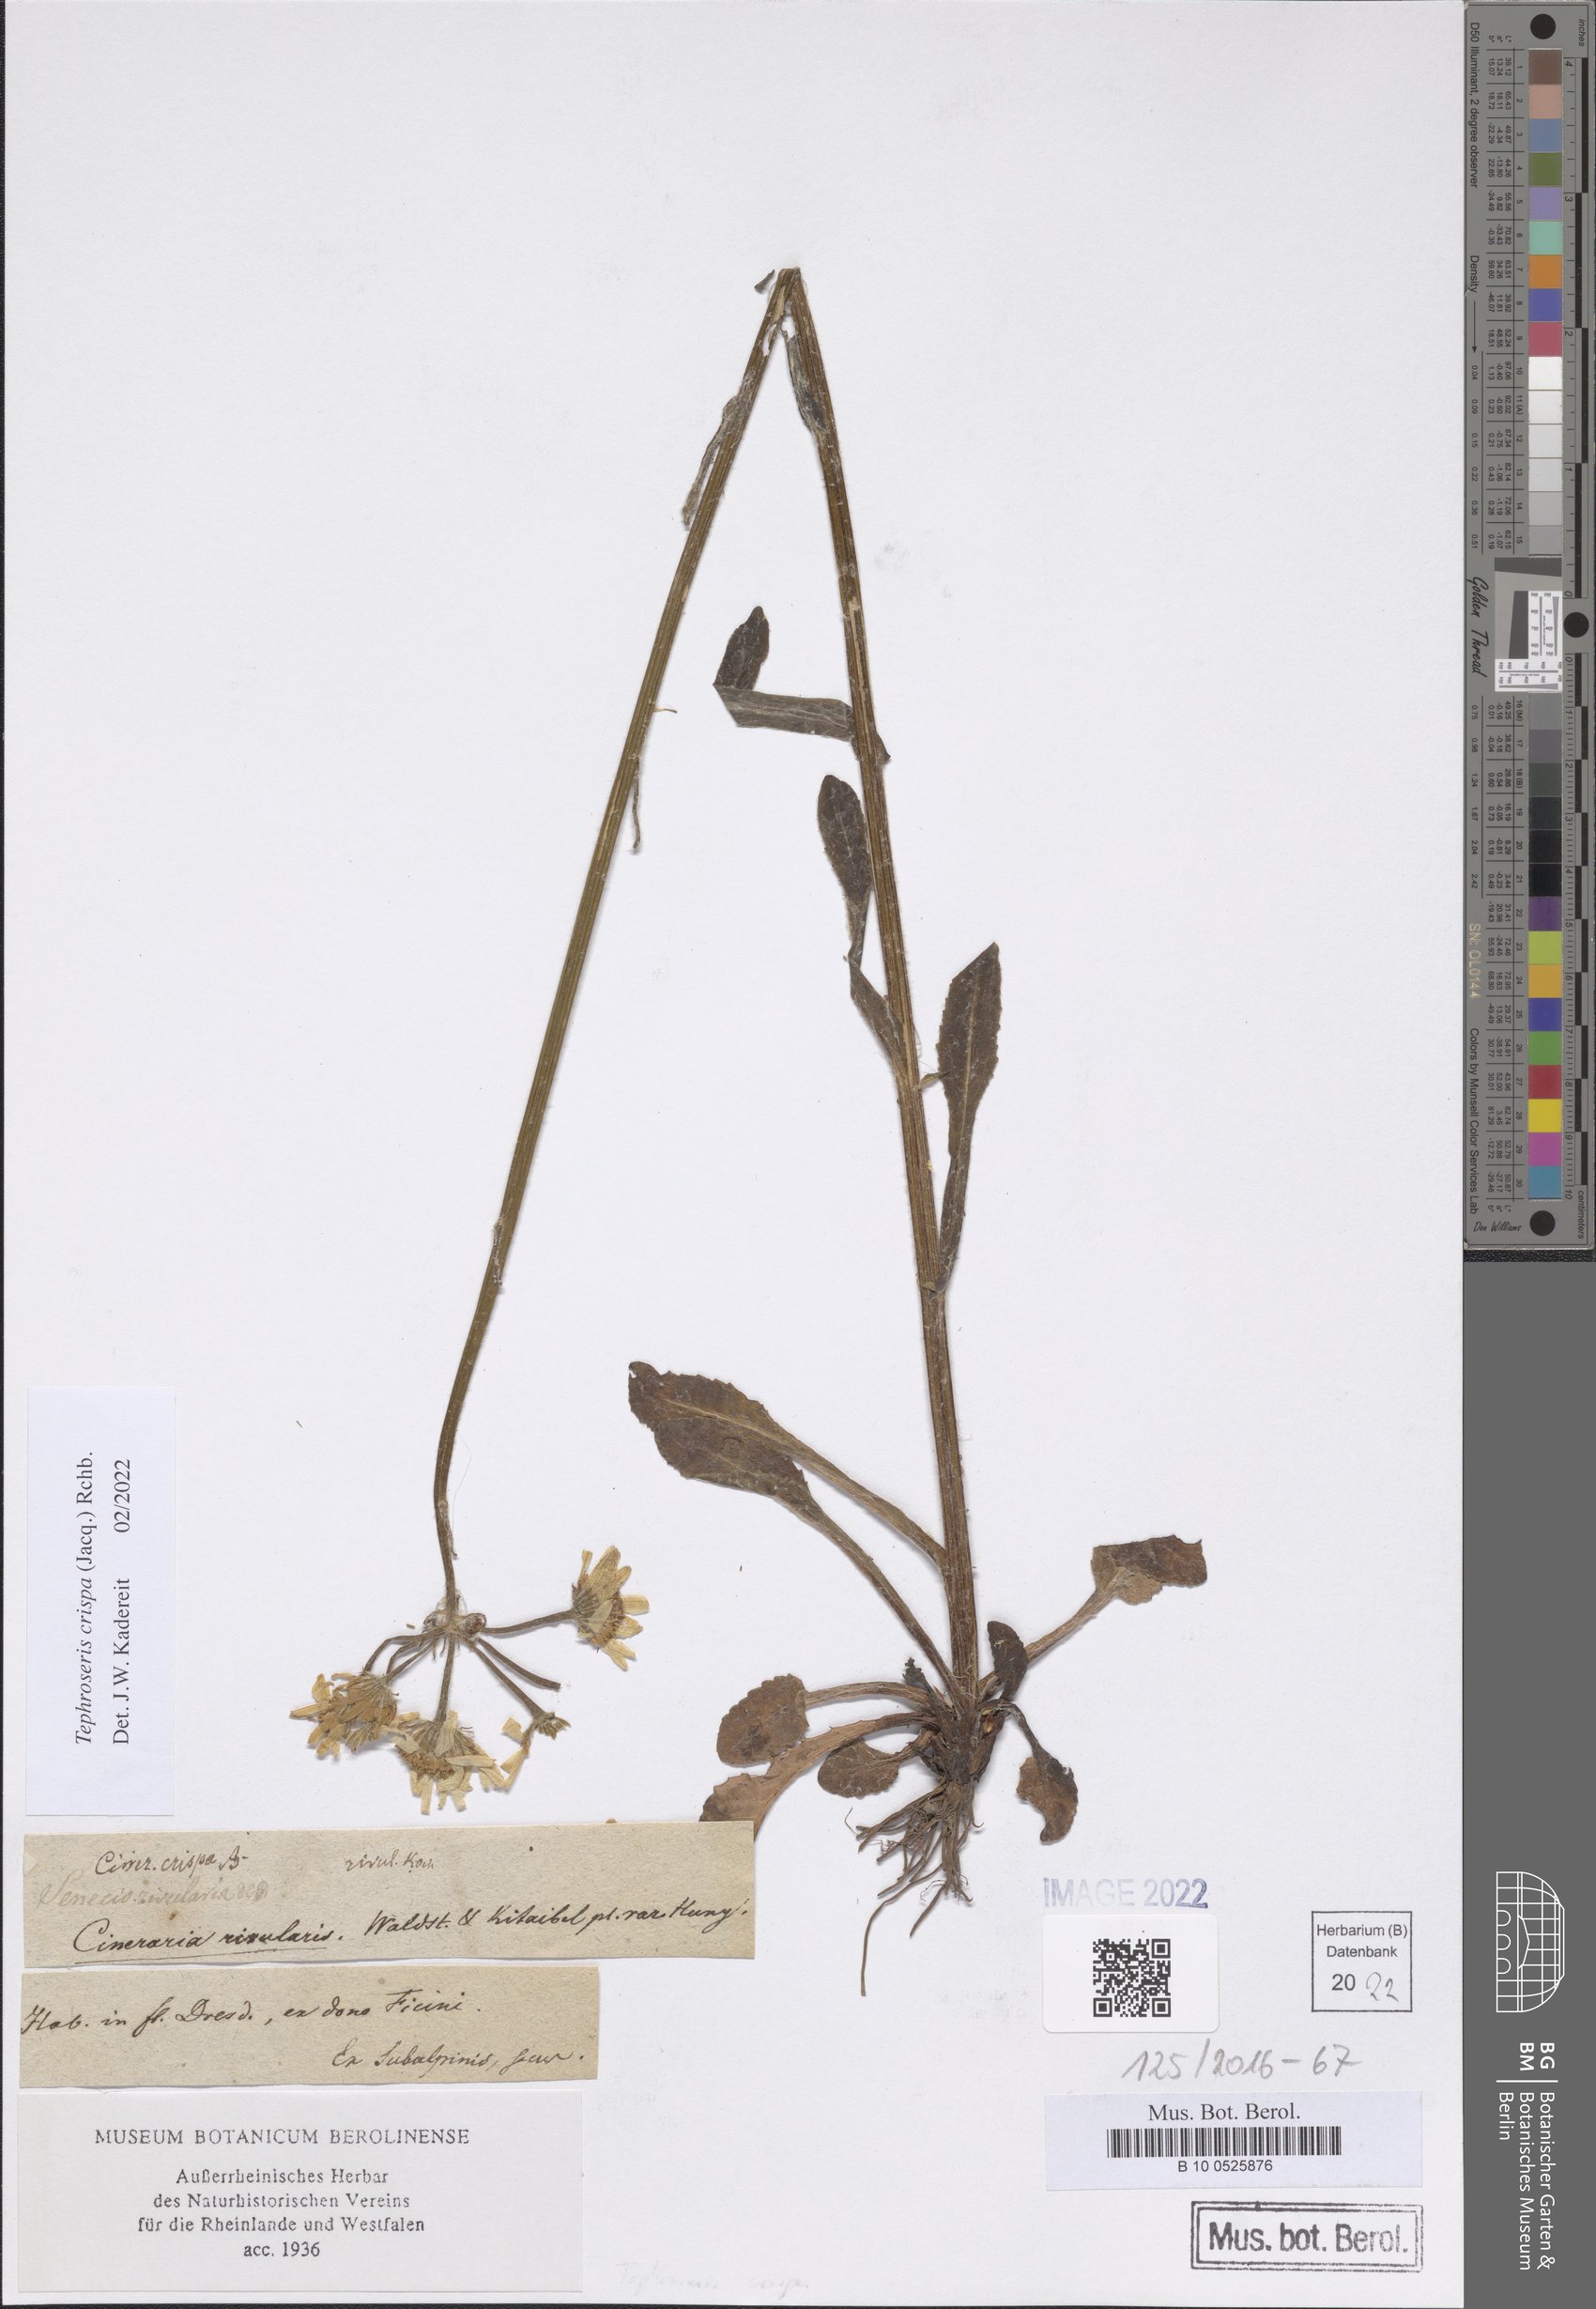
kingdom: Plantae
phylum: Tracheophyta
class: Magnoliopsida
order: Asterales
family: Asteraceae
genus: Tephroseris
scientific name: Tephroseris crispa
